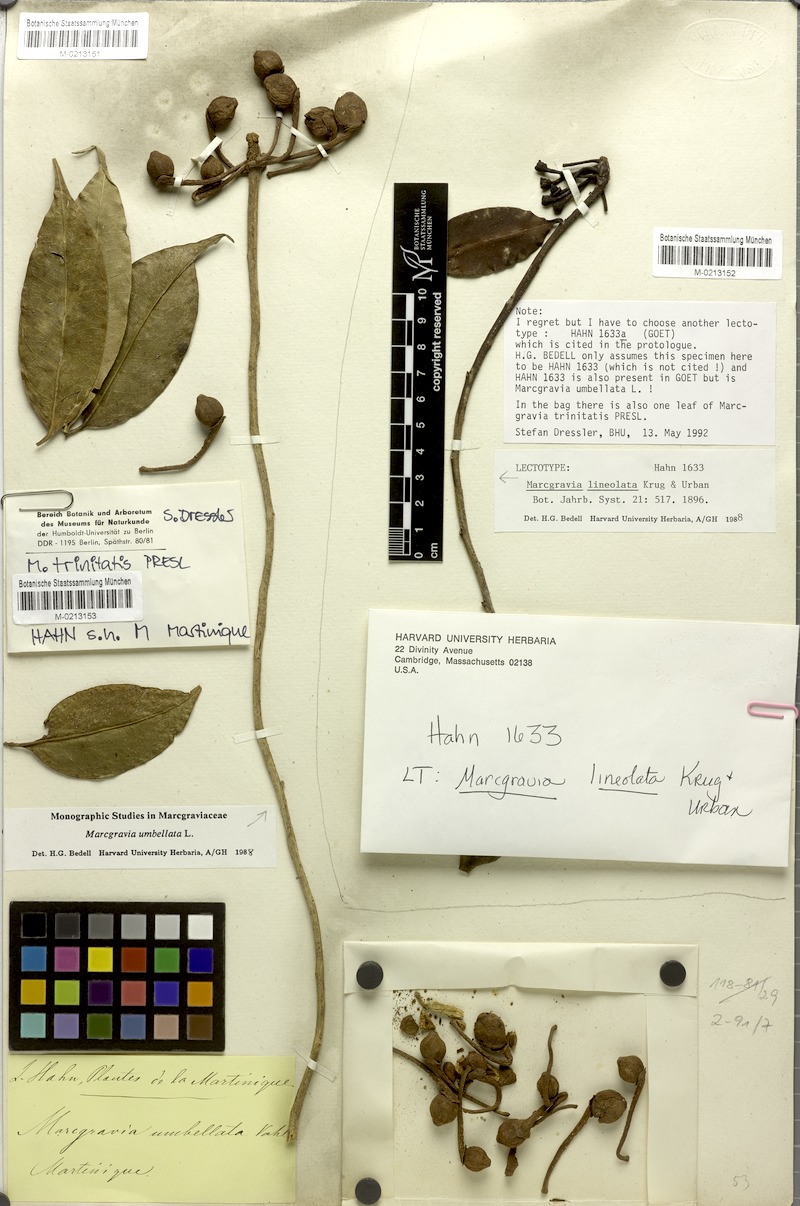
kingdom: Plantae
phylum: Tracheophyta
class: Magnoliopsida
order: Ericales
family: Marcgraviaceae
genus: Marcgravia
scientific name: Marcgravia umbellata
